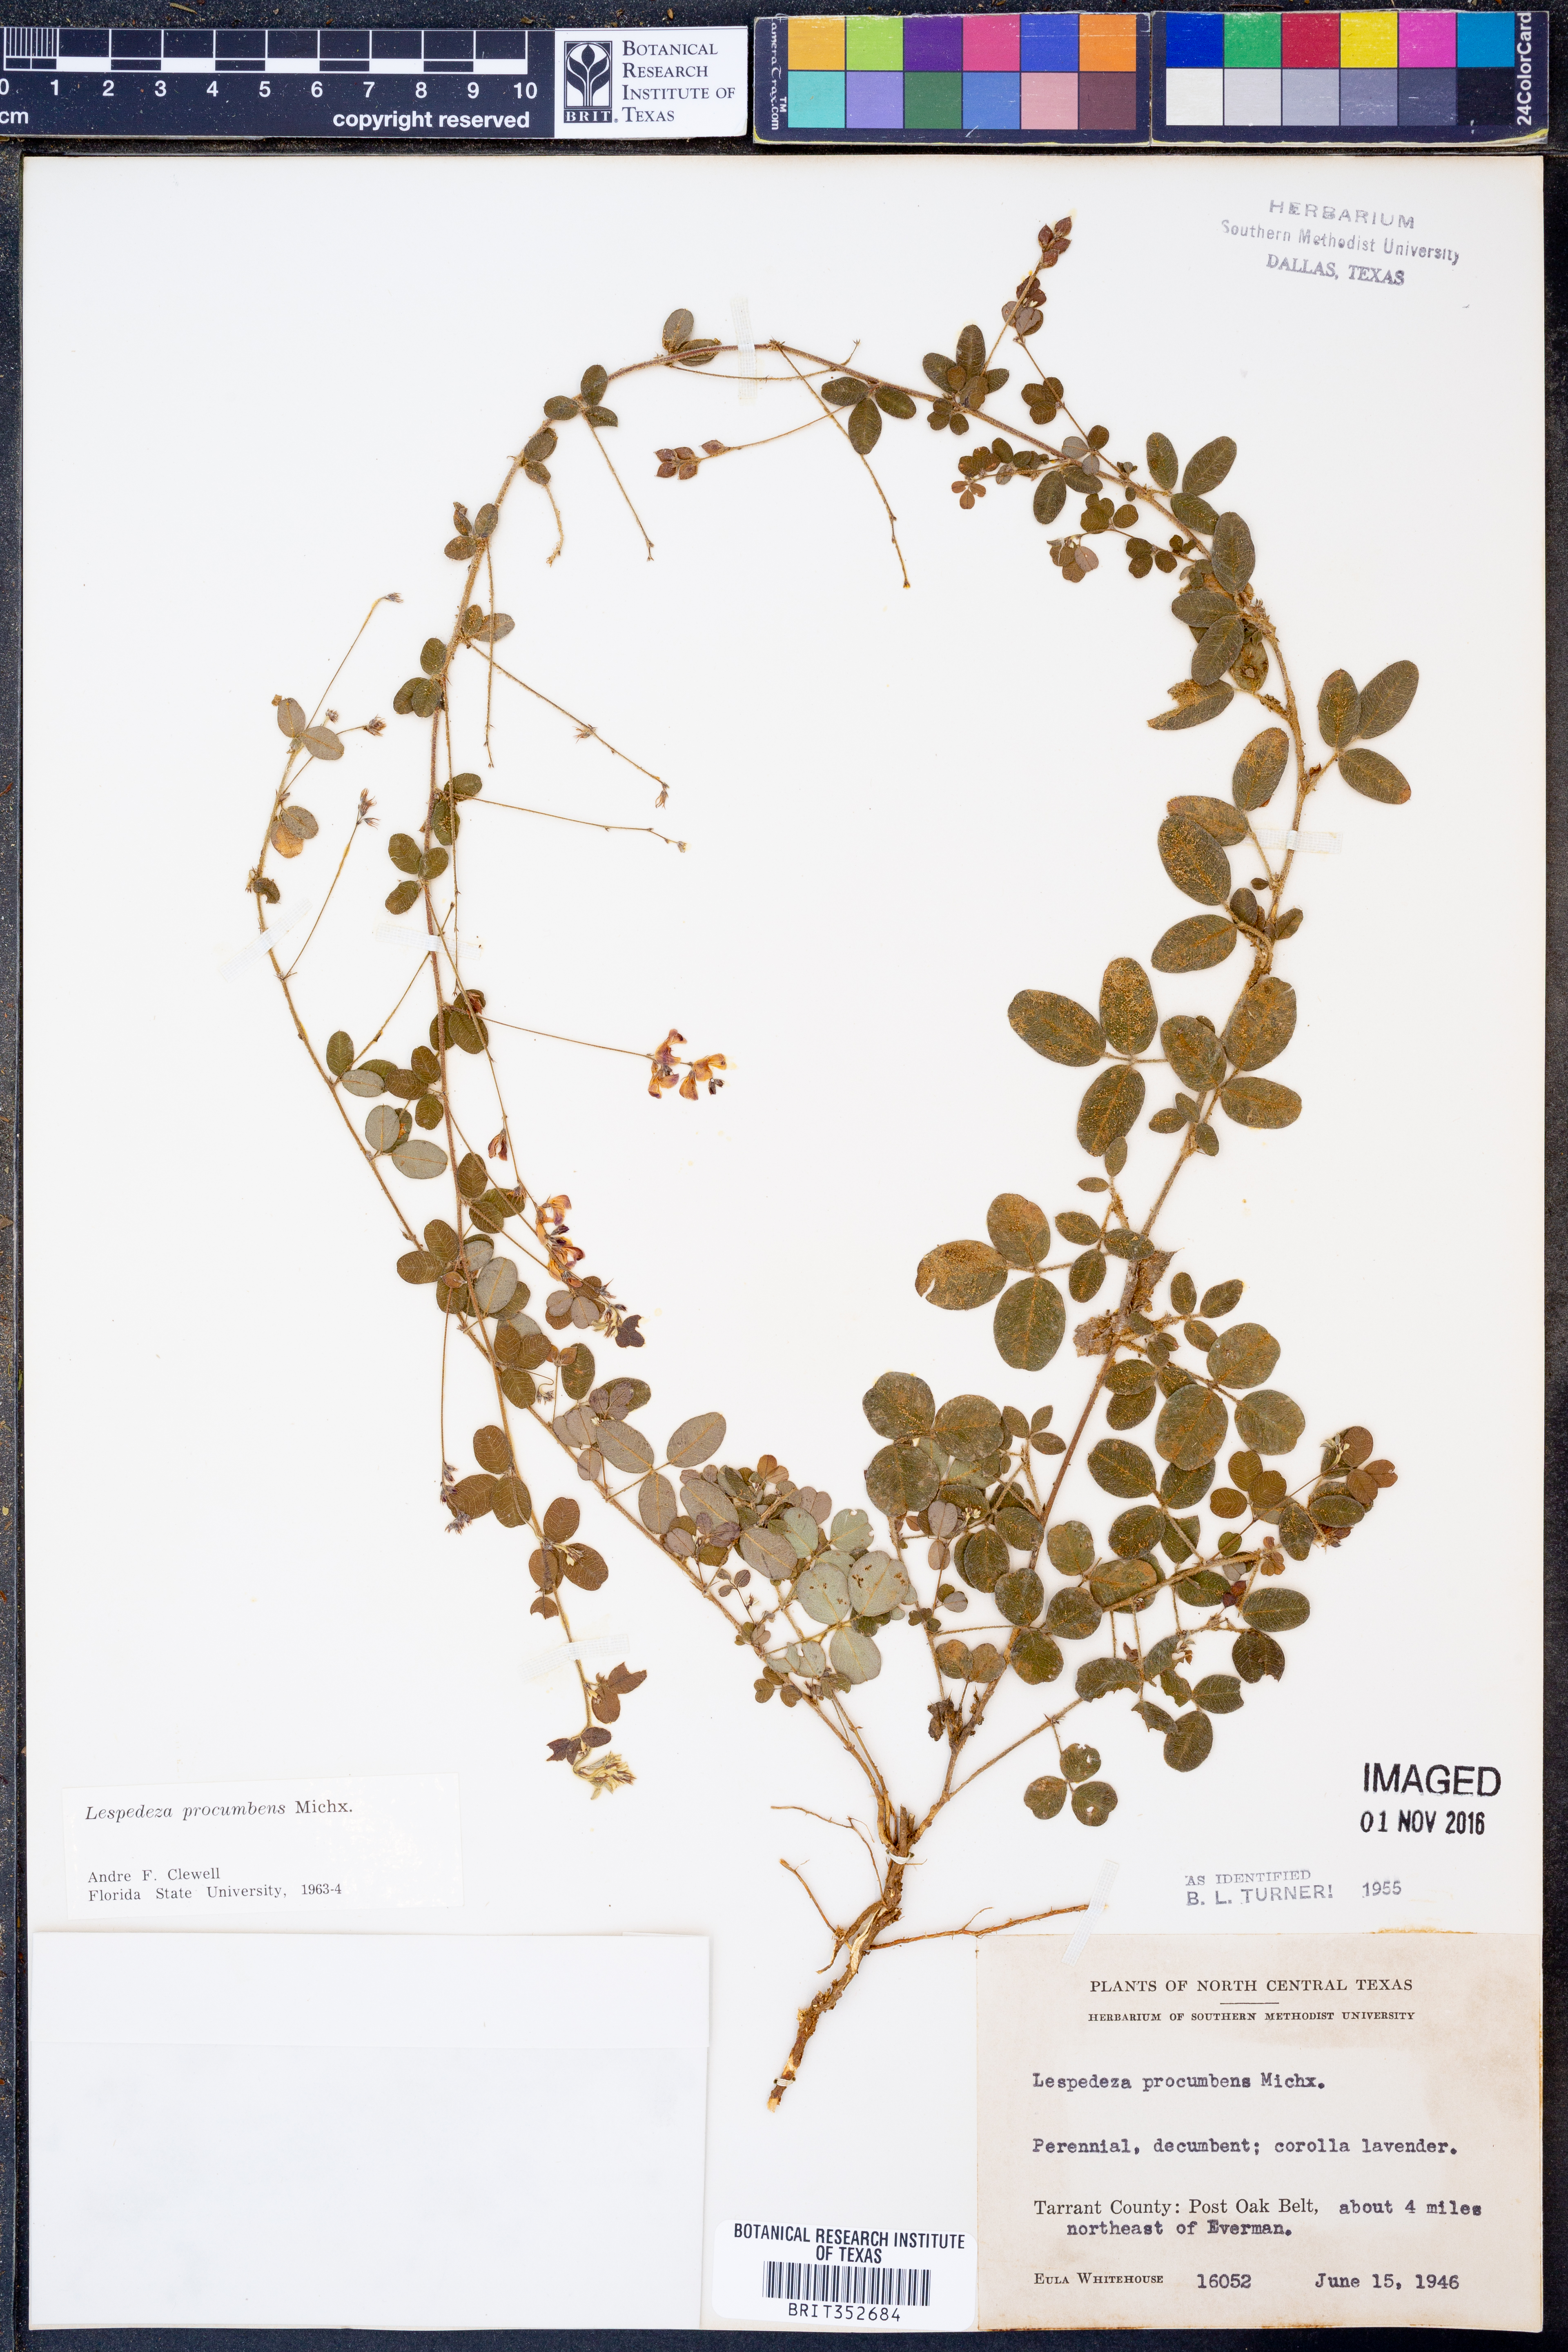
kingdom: Plantae
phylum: Tracheophyta
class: Magnoliopsida
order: Fabales
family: Fabaceae
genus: Lespedeza
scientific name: Lespedeza procumbens
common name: Downy trailing bush-clover
